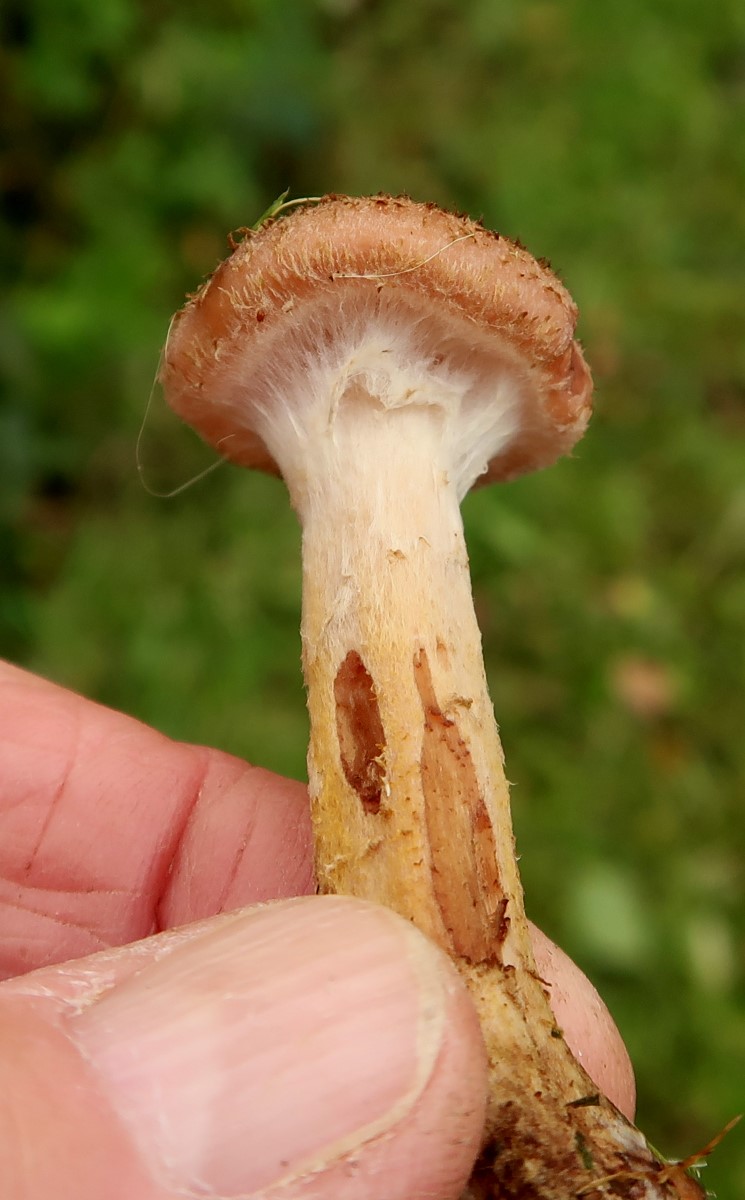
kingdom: Fungi
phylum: Basidiomycota
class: Agaricomycetes
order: Agaricales
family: Physalacriaceae
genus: Armillaria
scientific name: Armillaria lutea
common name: køllestokket honningsvamp
